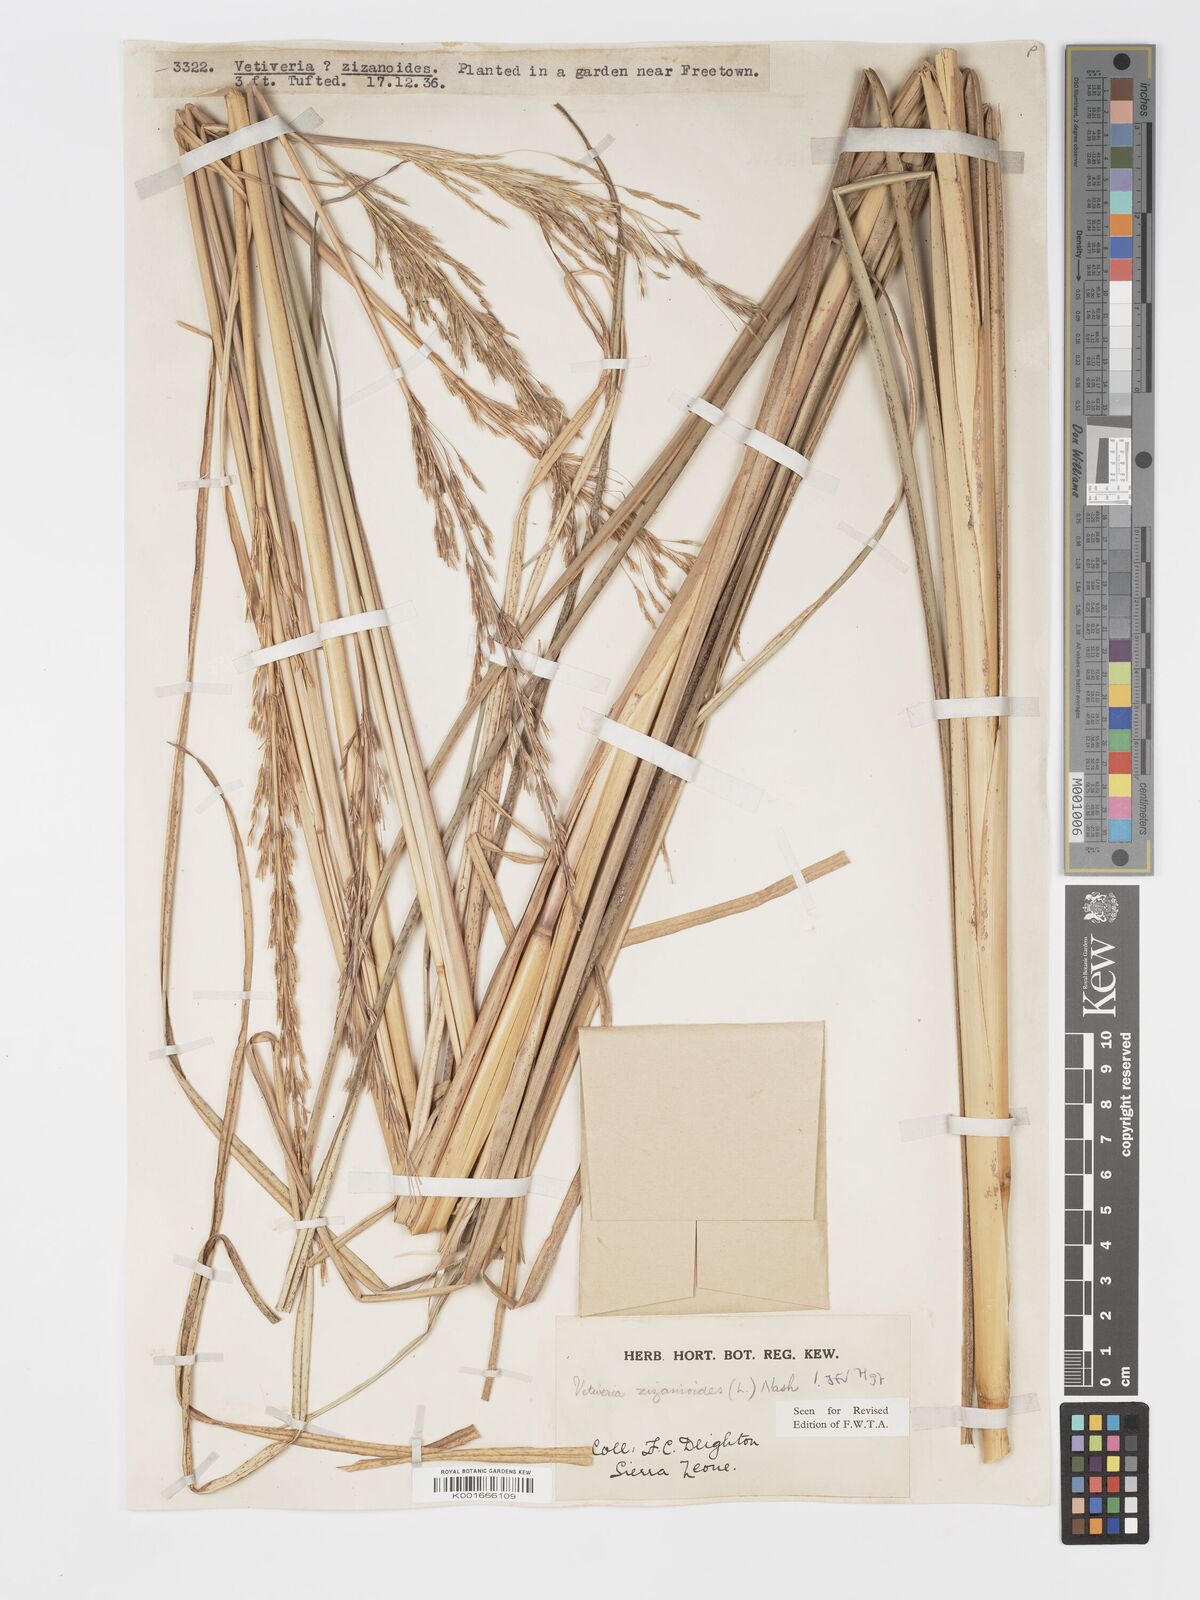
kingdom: Plantae
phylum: Tracheophyta
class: Liliopsida
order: Poales
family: Poaceae
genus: Chrysopogon
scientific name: Chrysopogon zizanioides
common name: False beardgrass
